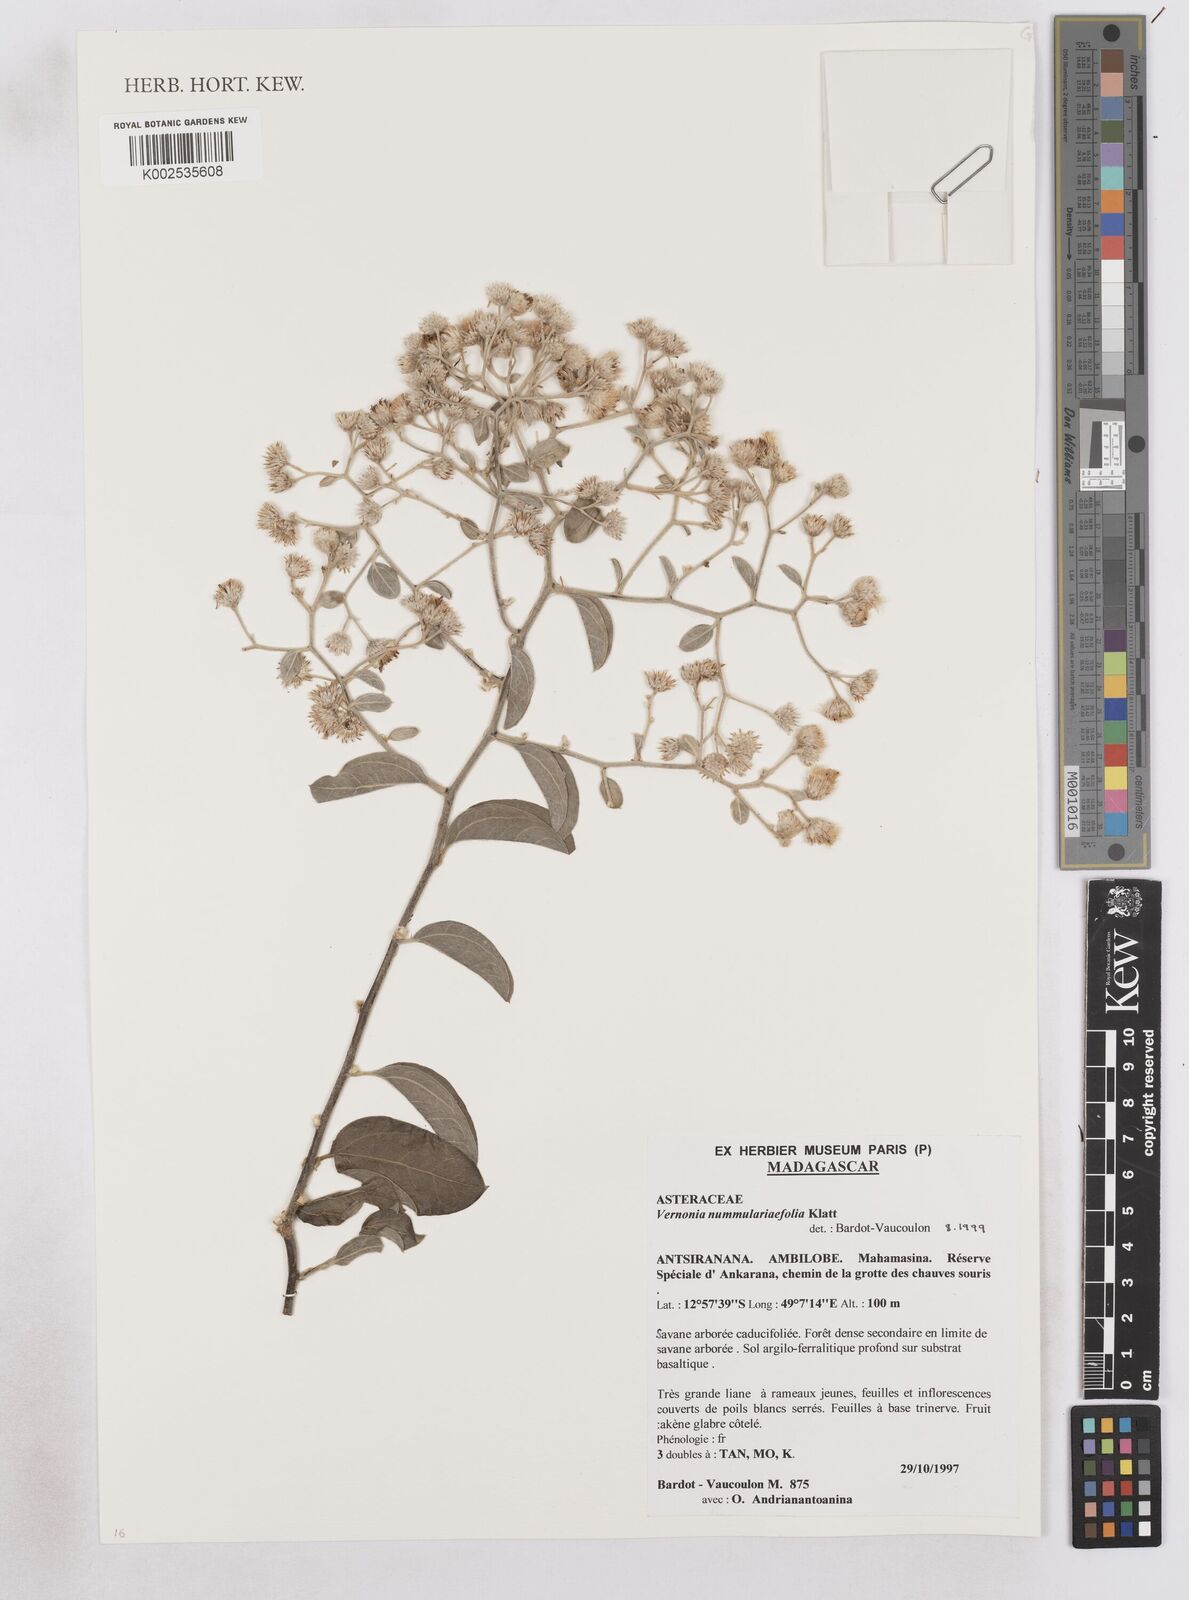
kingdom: Plantae
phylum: Tracheophyta
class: Magnoliopsida
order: Asterales
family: Asteraceae
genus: Distephanus
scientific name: Distephanus nummulariifolius
